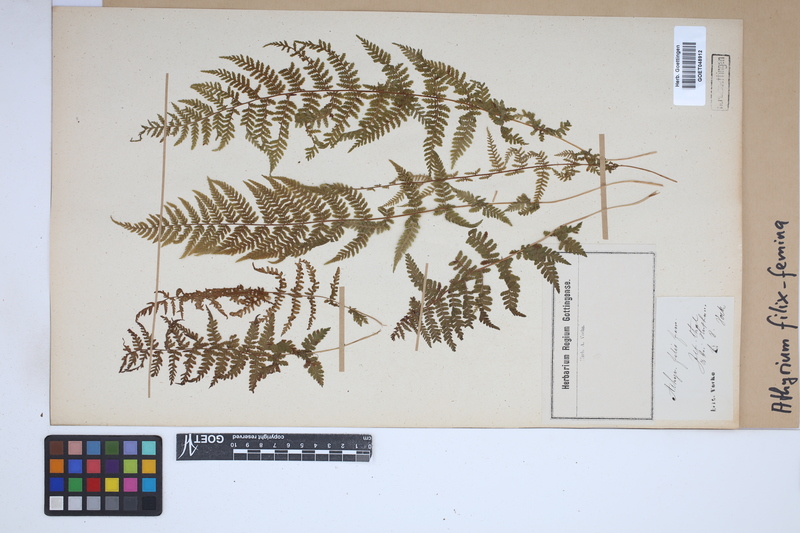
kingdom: Plantae
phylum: Tracheophyta
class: Polypodiopsida
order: Polypodiales
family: Athyriaceae
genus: Athyrium
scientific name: Athyrium filix-femina
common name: Lady fern
